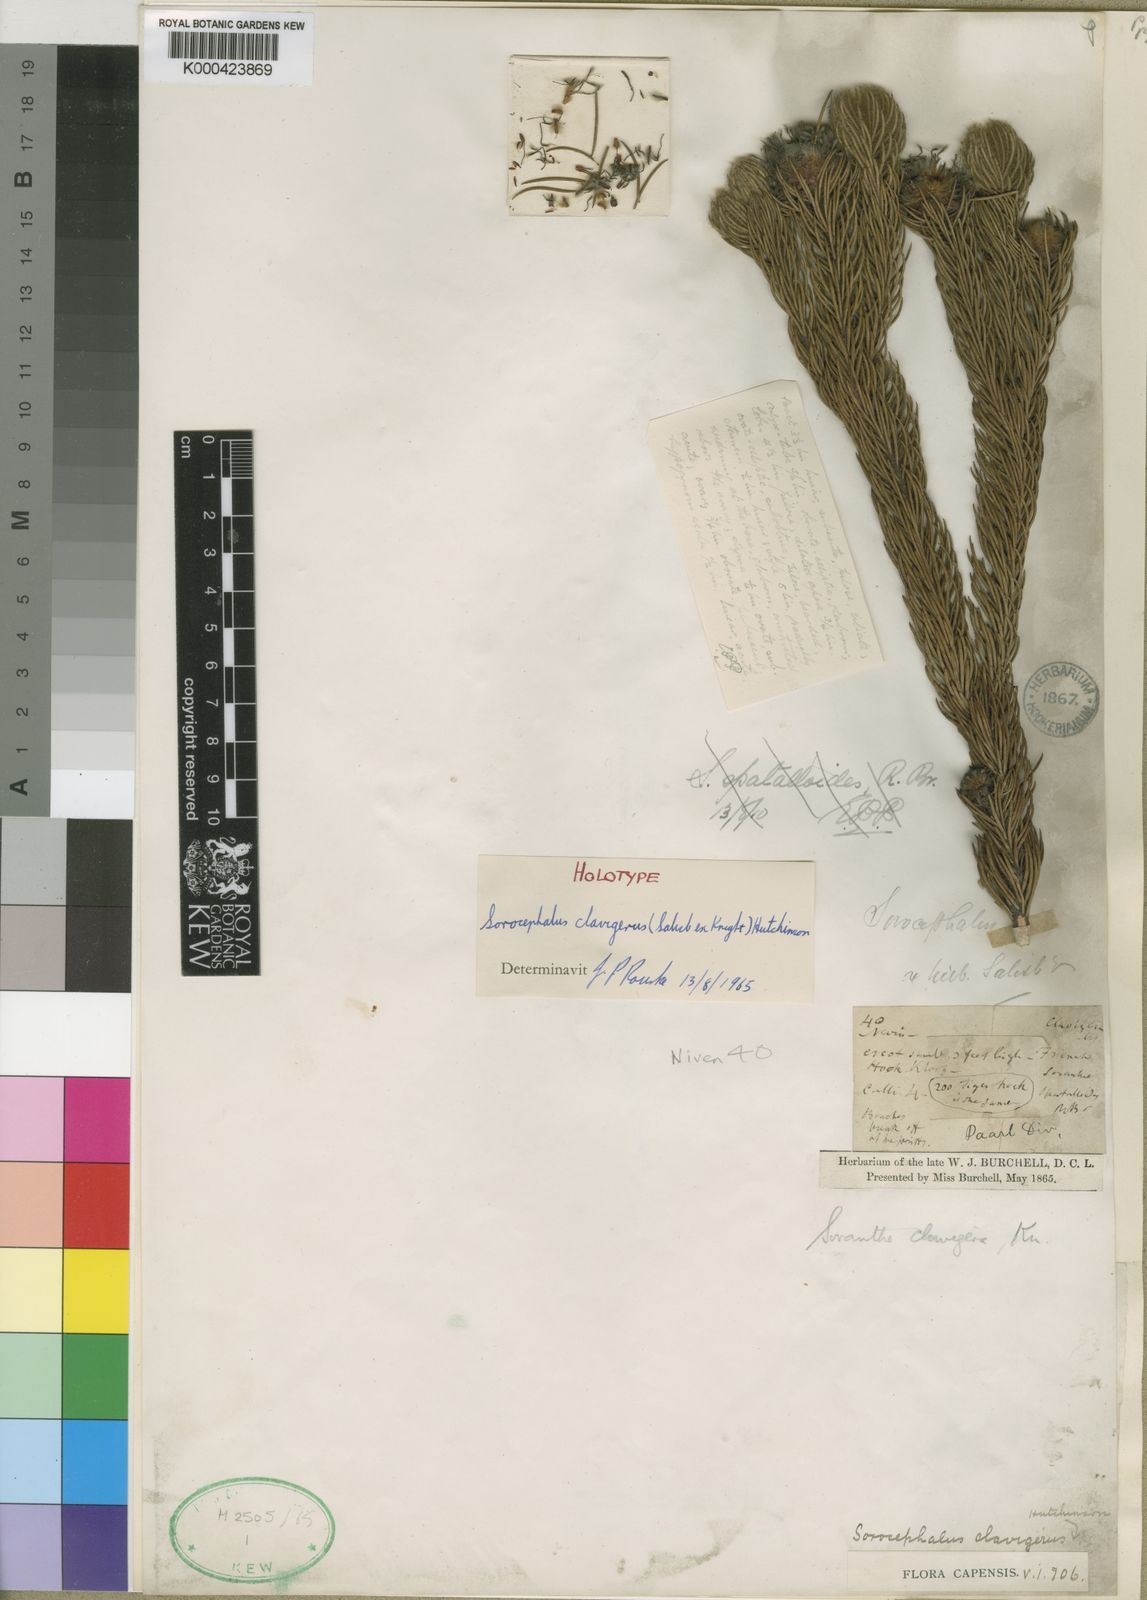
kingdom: Plantae
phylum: Tracheophyta
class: Magnoliopsida
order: Proteales
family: Proteaceae
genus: Sorocephalus
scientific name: Sorocephalus
